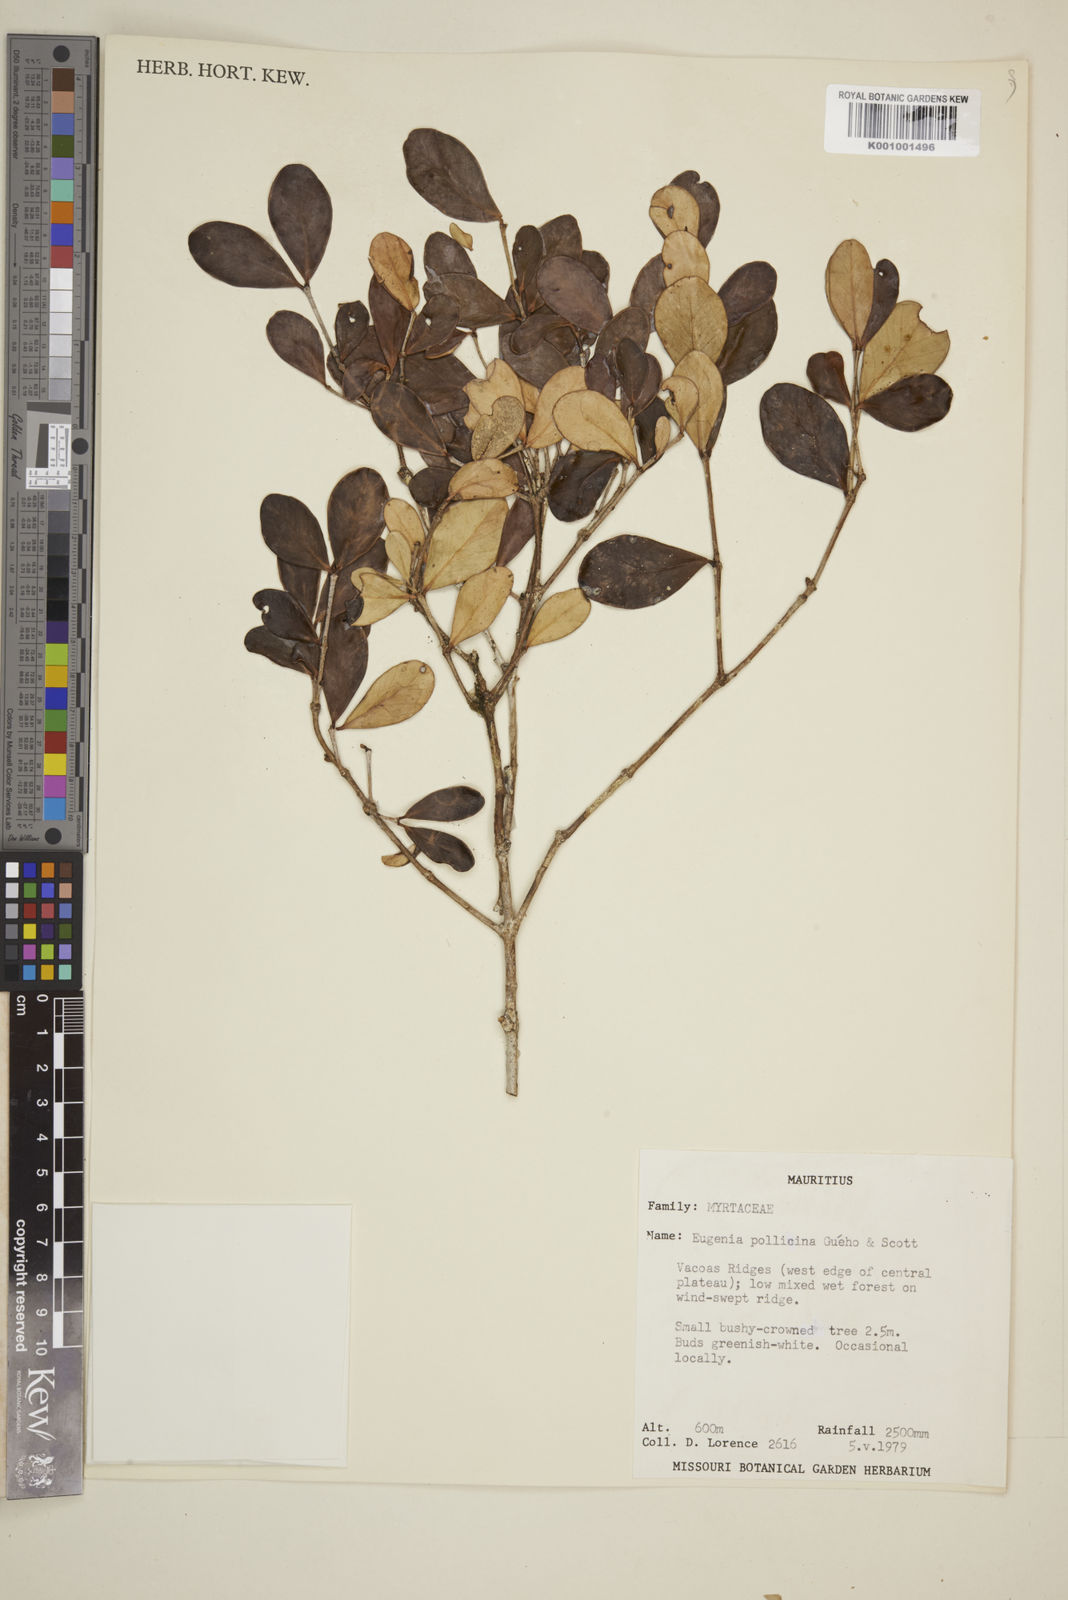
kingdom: Plantae
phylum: Tracheophyta
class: Magnoliopsida
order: Myrtales
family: Myrtaceae
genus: Eugenia
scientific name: Eugenia
